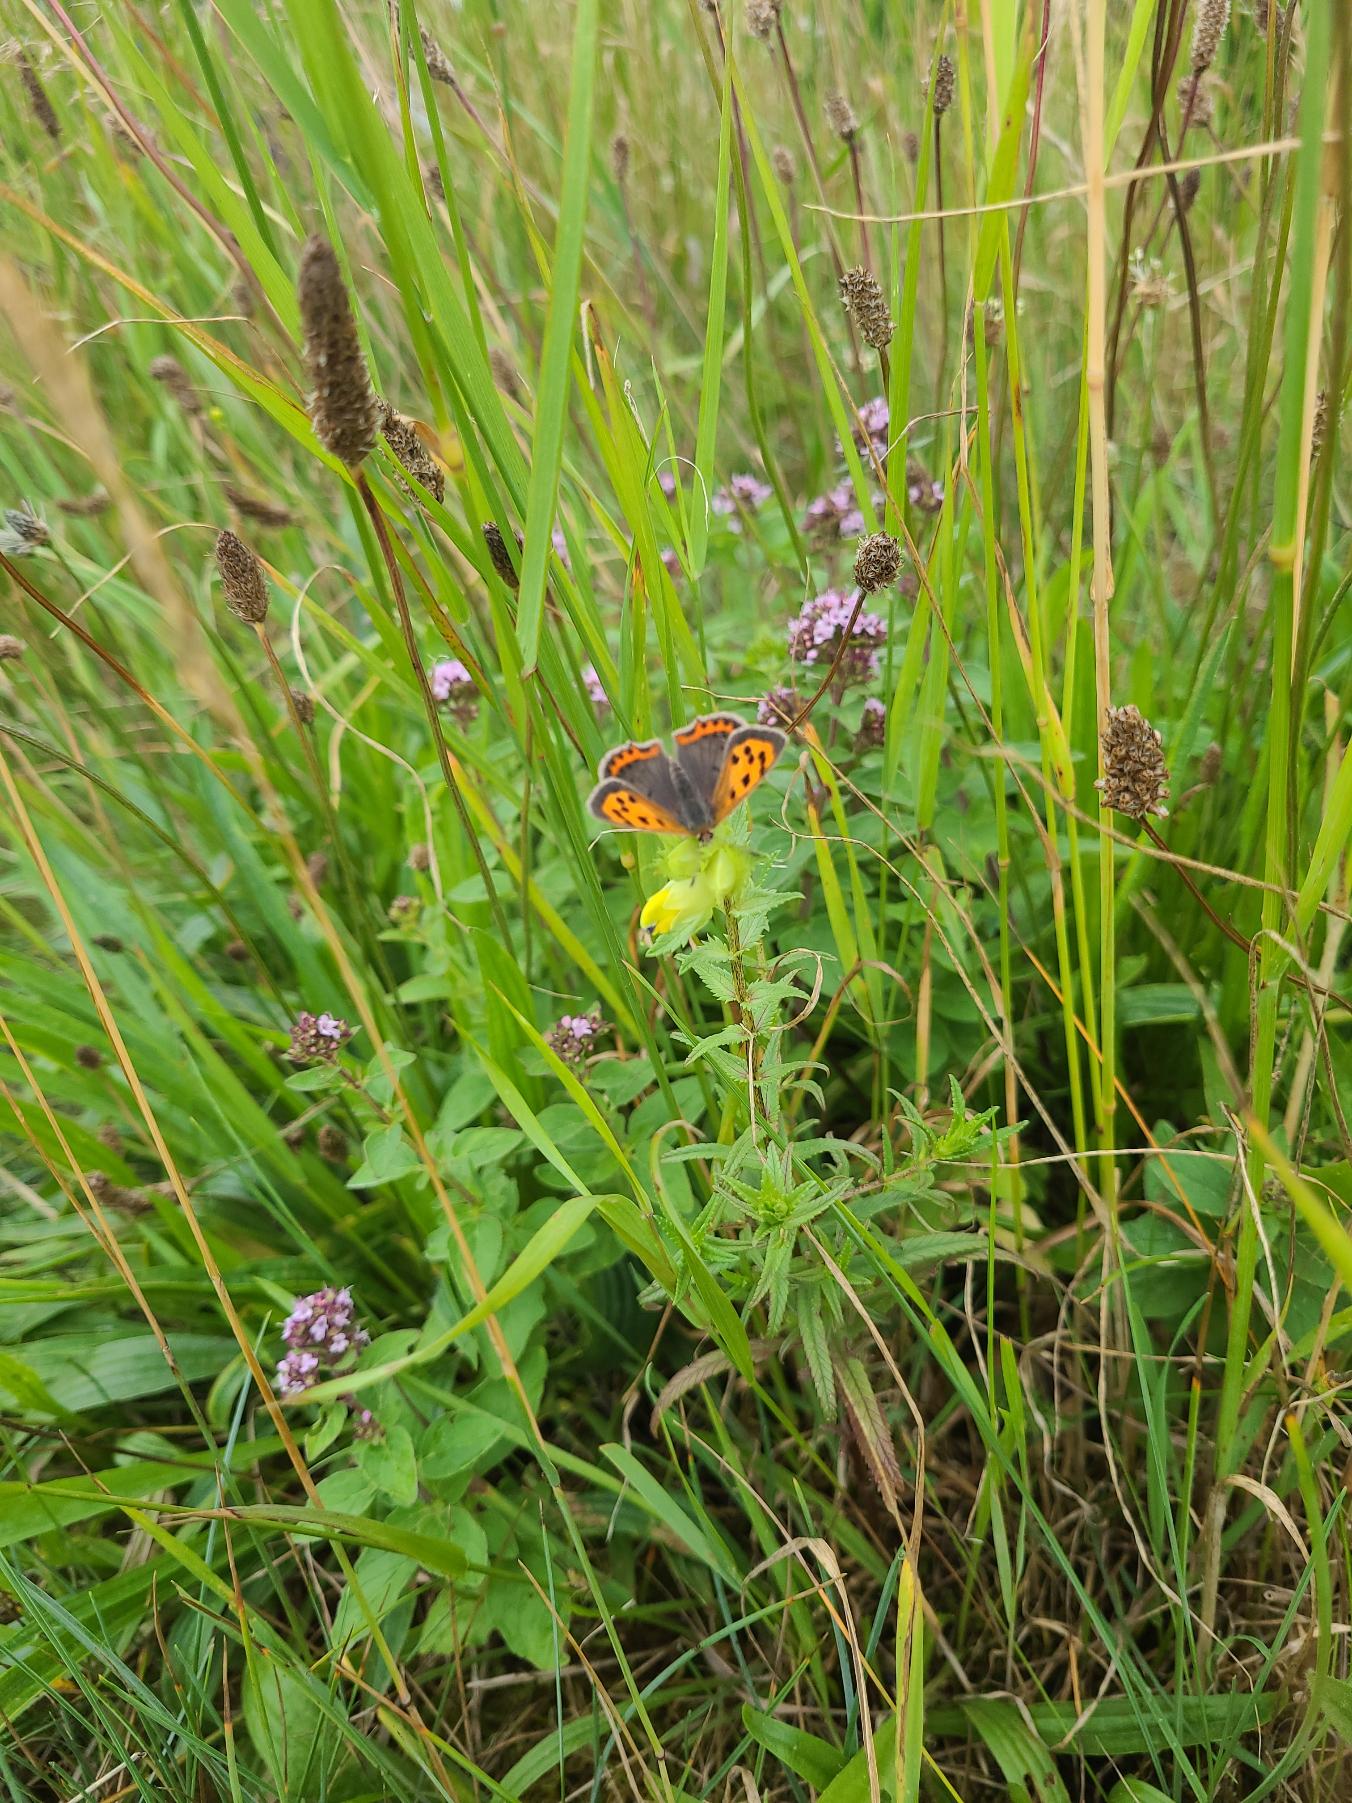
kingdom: Animalia
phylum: Arthropoda
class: Insecta
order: Lepidoptera
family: Lycaenidae
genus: Lycaena
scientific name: Lycaena phlaeas
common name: Lille ildfugl
